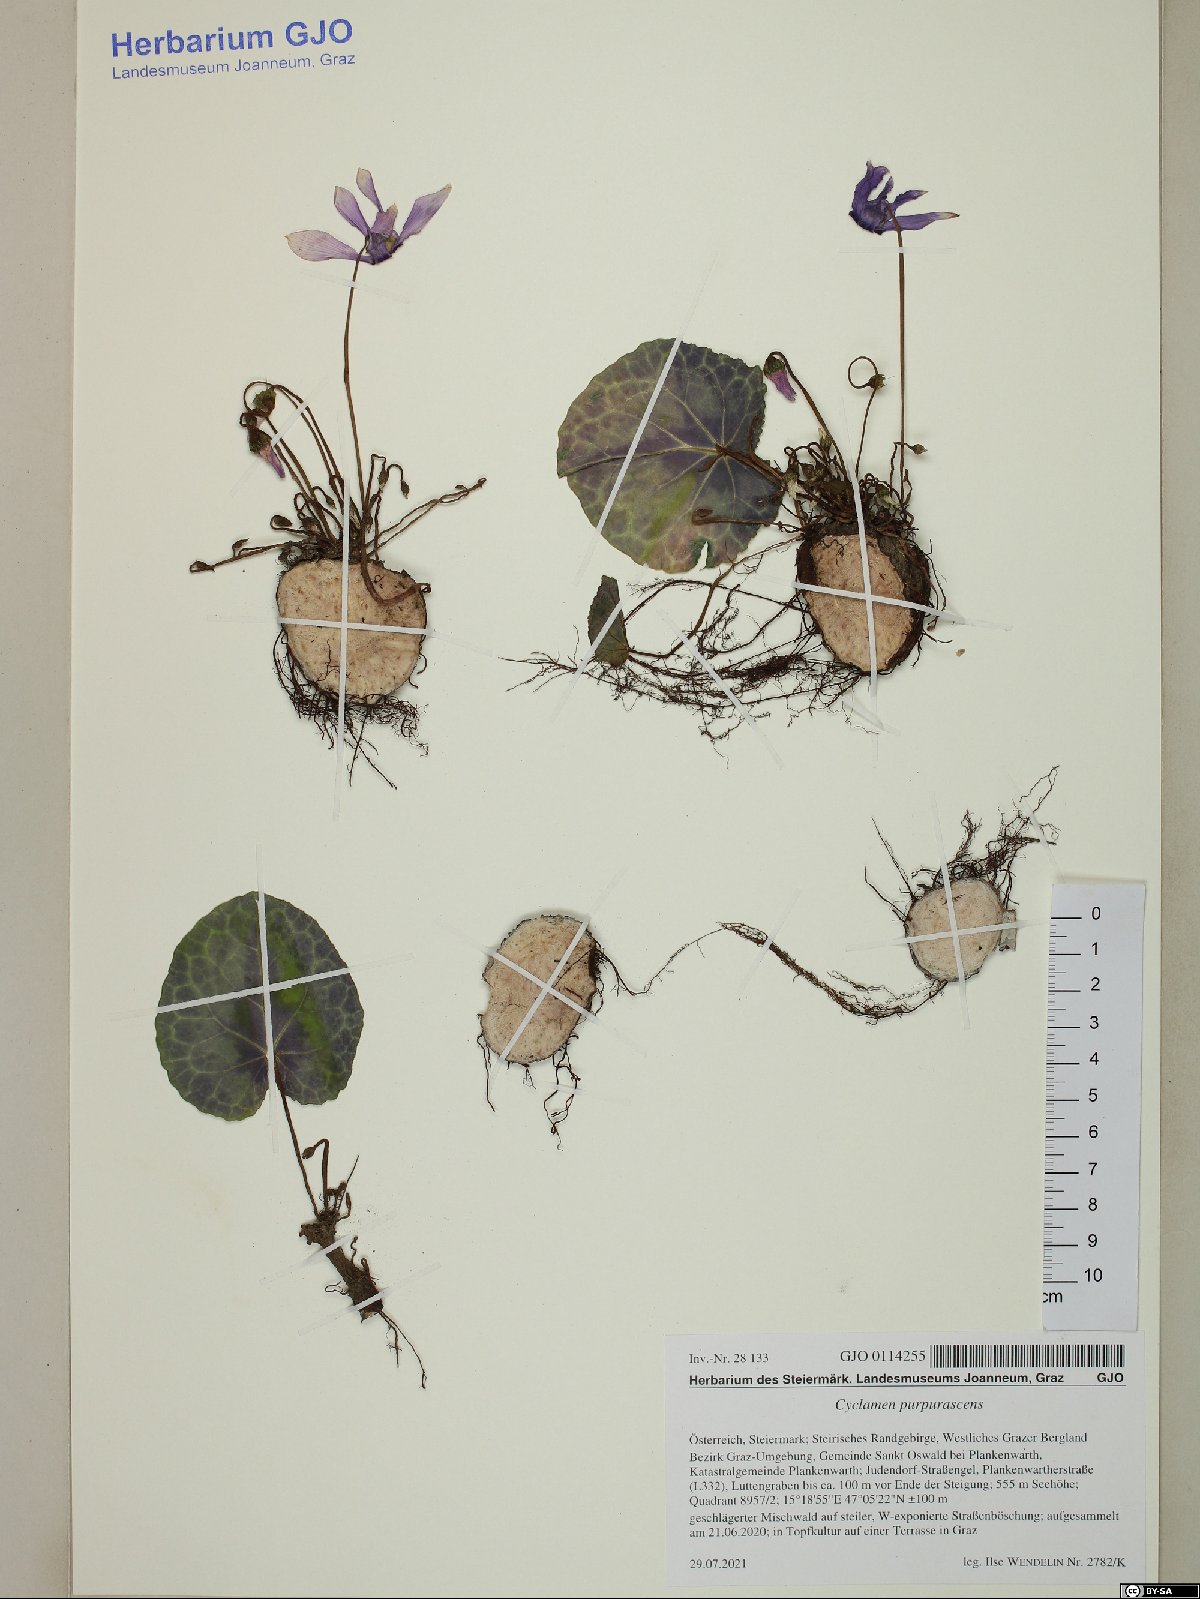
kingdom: Plantae
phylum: Tracheophyta
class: Magnoliopsida
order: Ericales
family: Primulaceae
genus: Cyclamen
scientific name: Cyclamen purpurascens
